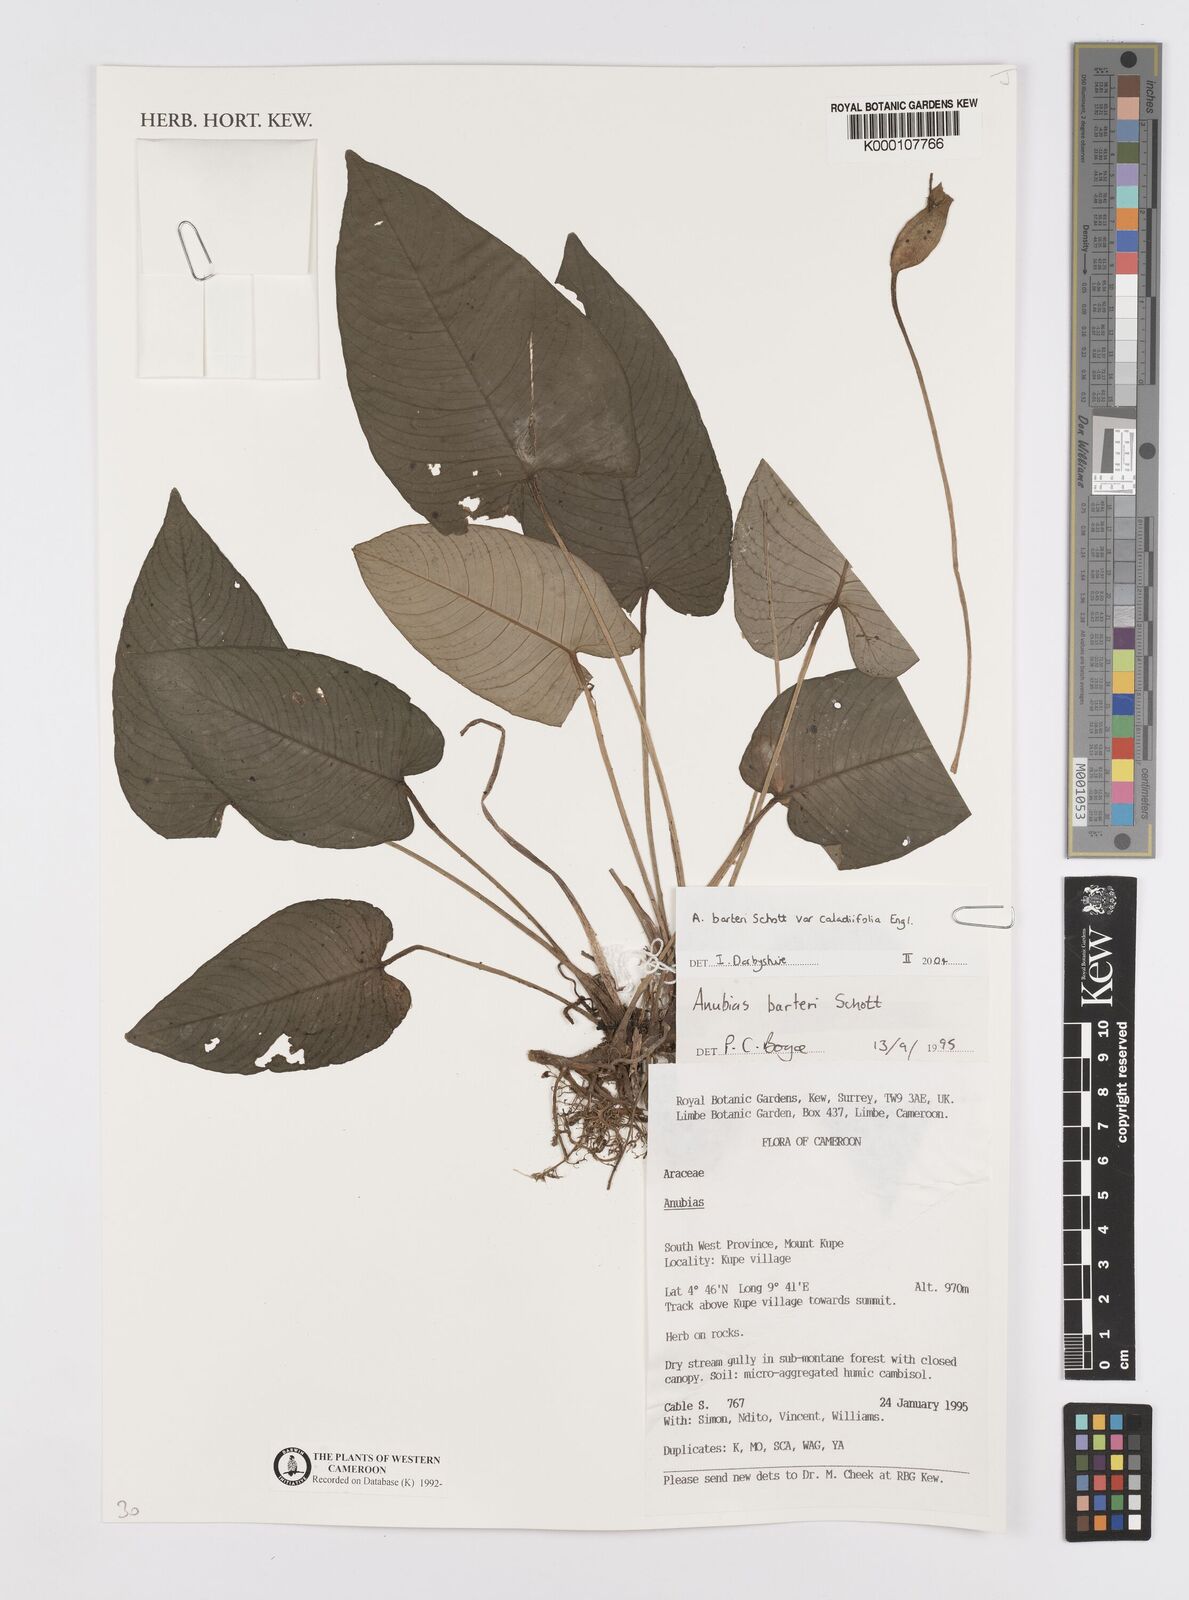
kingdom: Plantae
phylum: Tracheophyta
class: Liliopsida
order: Alismatales
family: Araceae
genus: Anubias
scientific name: Anubias barteri
